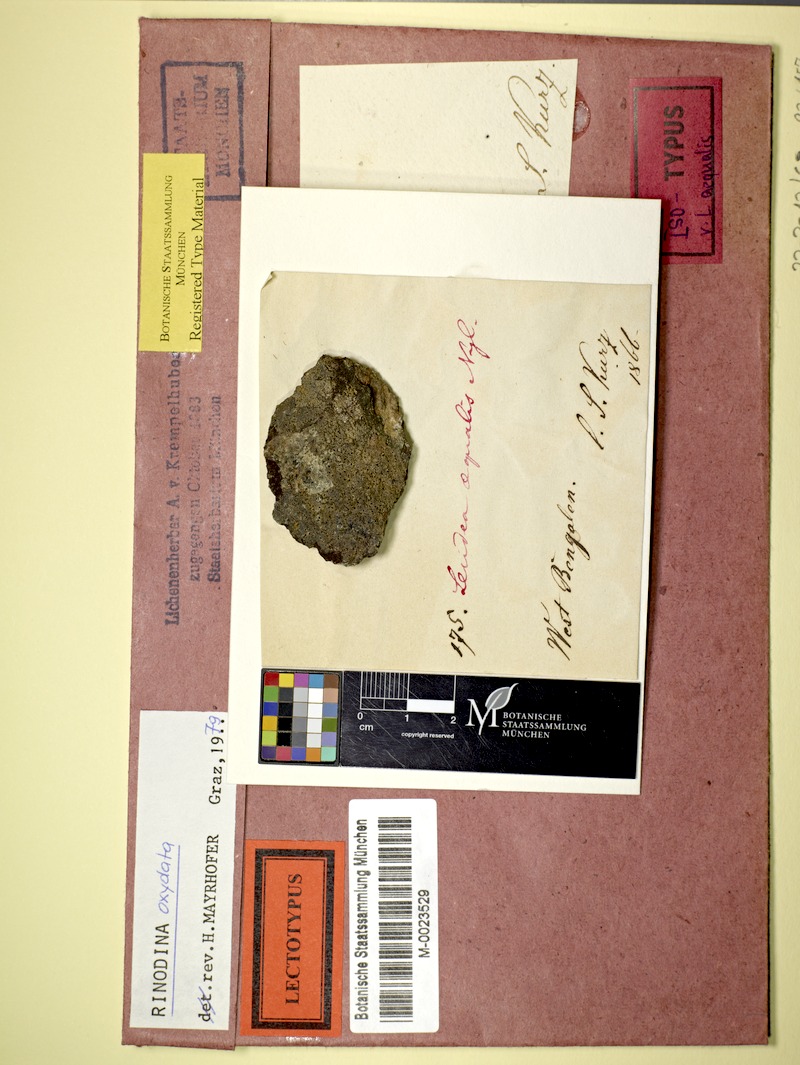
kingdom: Fungi
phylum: Ascomycota
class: Lecanoromycetes
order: Caliciales
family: Physciaceae
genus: Mischoblastia
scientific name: Mischoblastia oxydata
